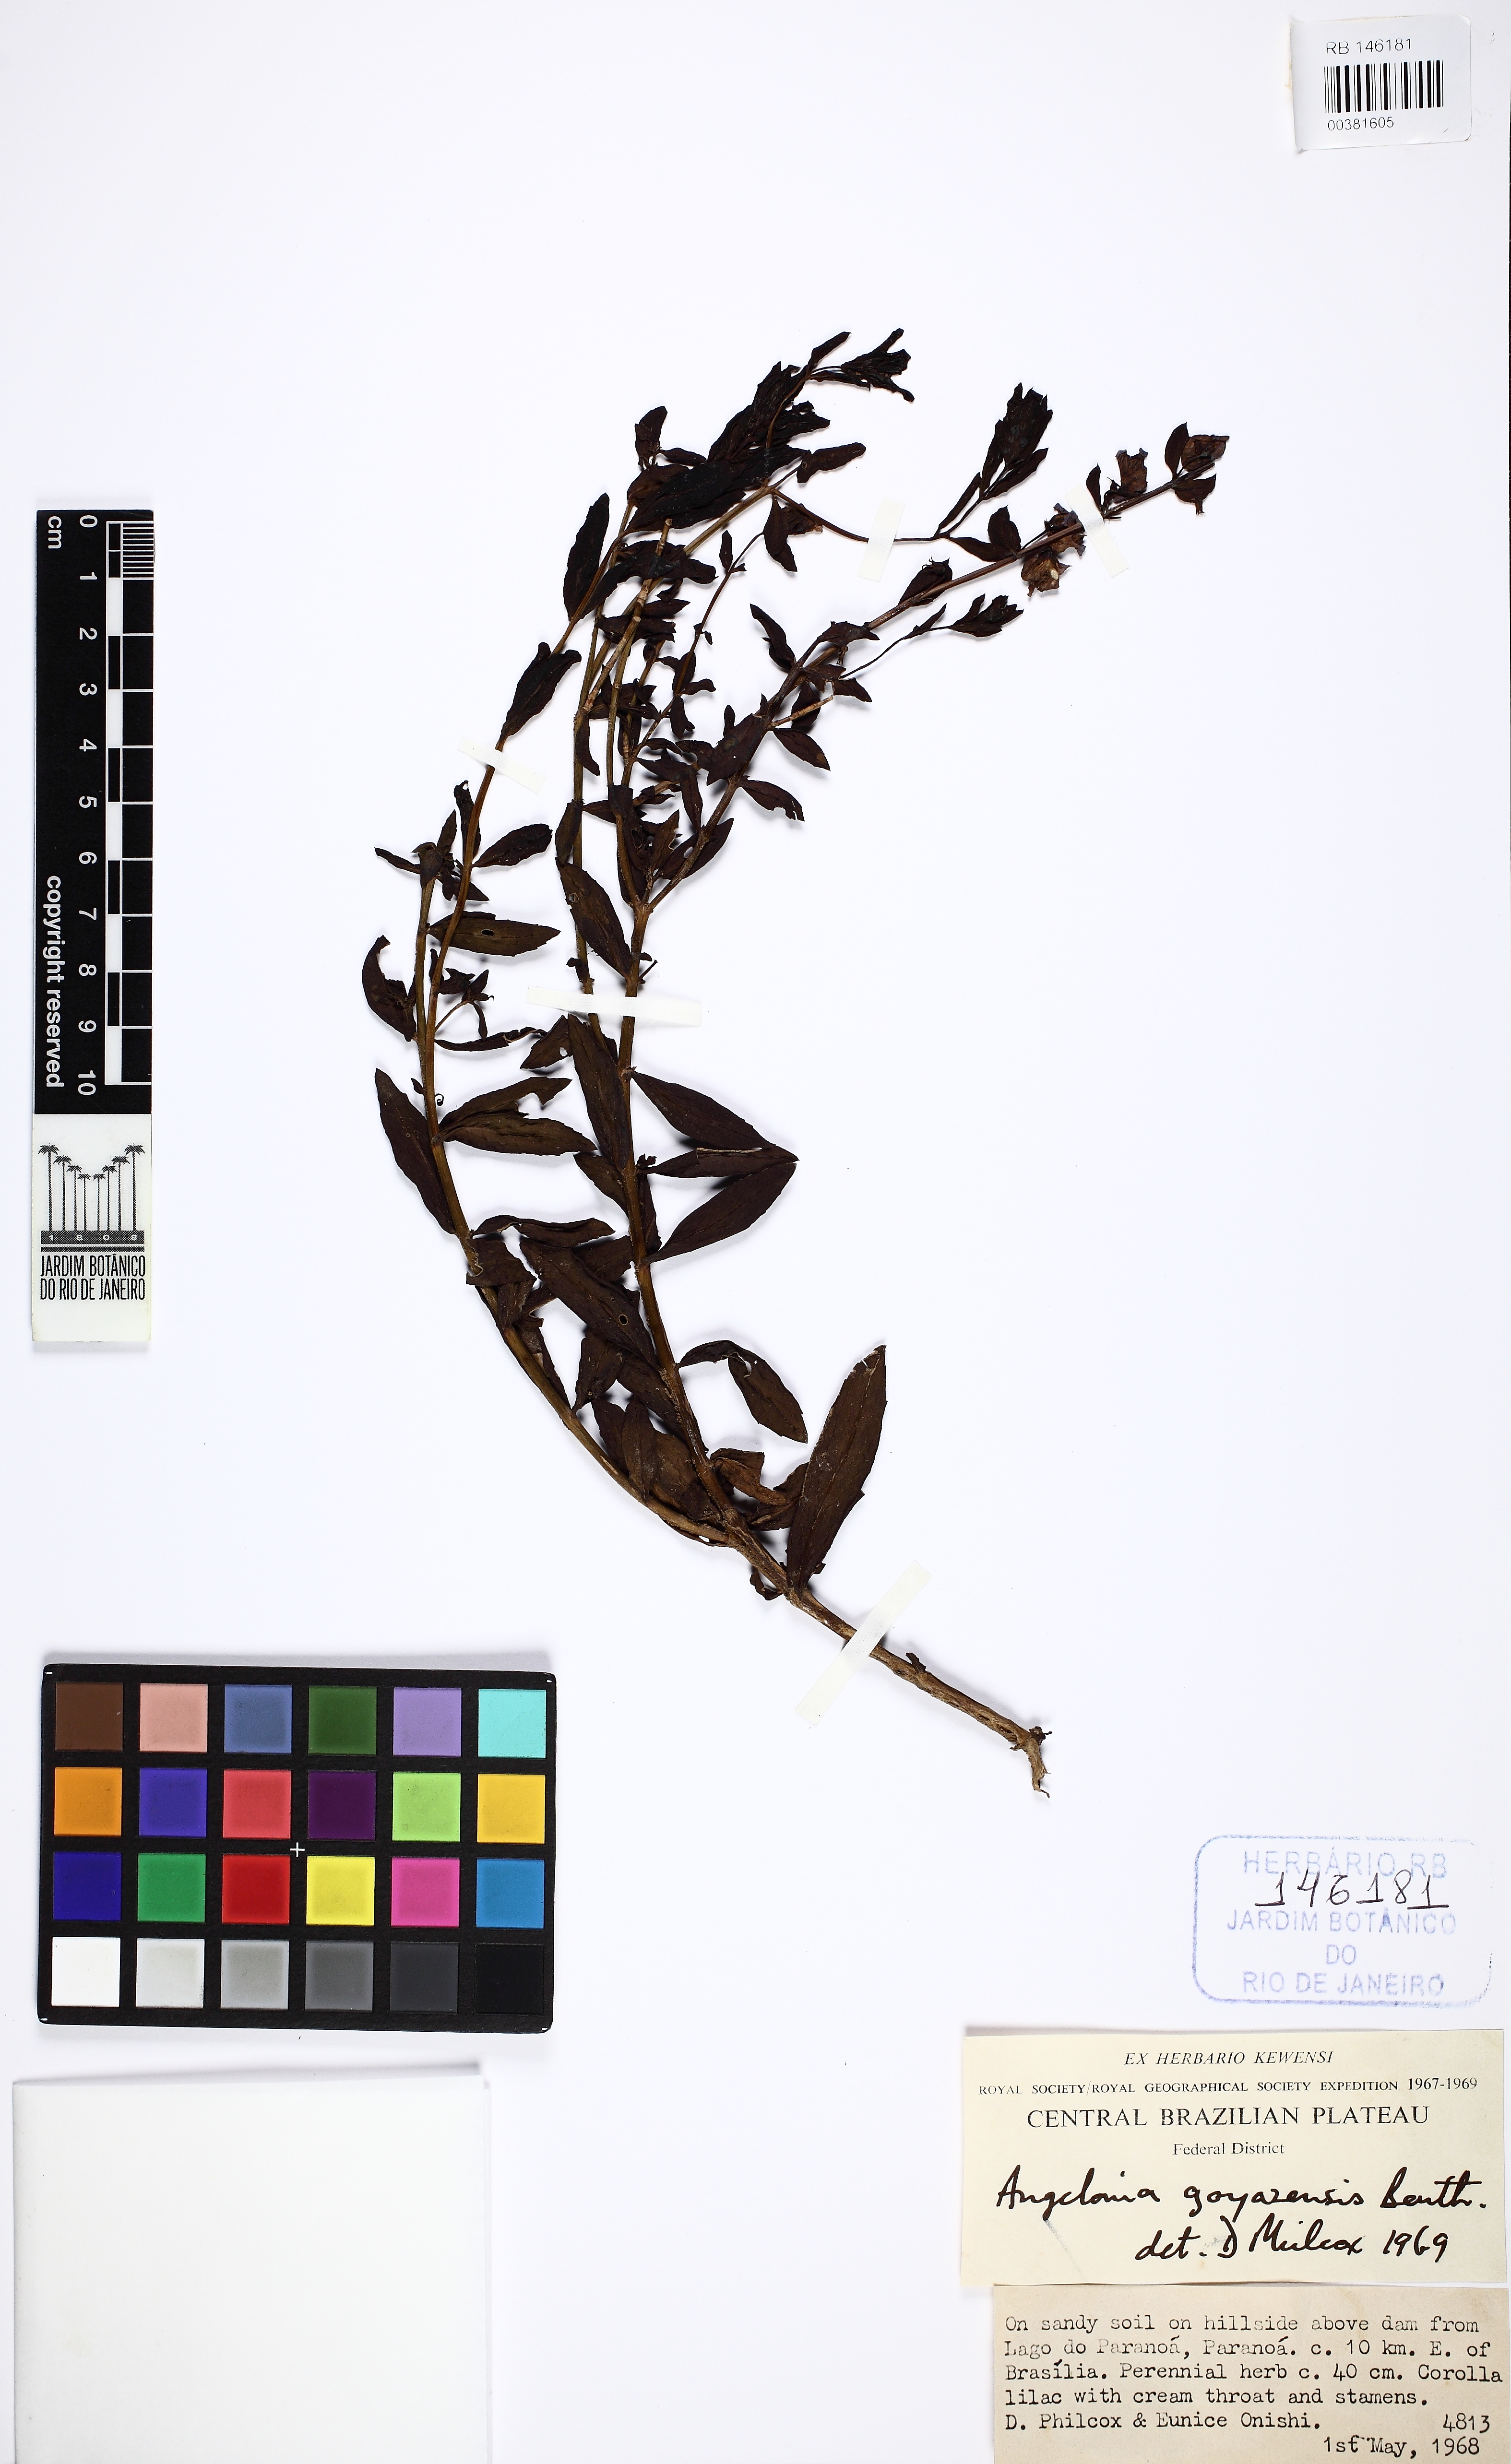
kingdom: Plantae
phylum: Tracheophyta
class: Magnoliopsida
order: Lamiales
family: Plantaginaceae
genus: Angelonia
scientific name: Angelonia goyazensis
